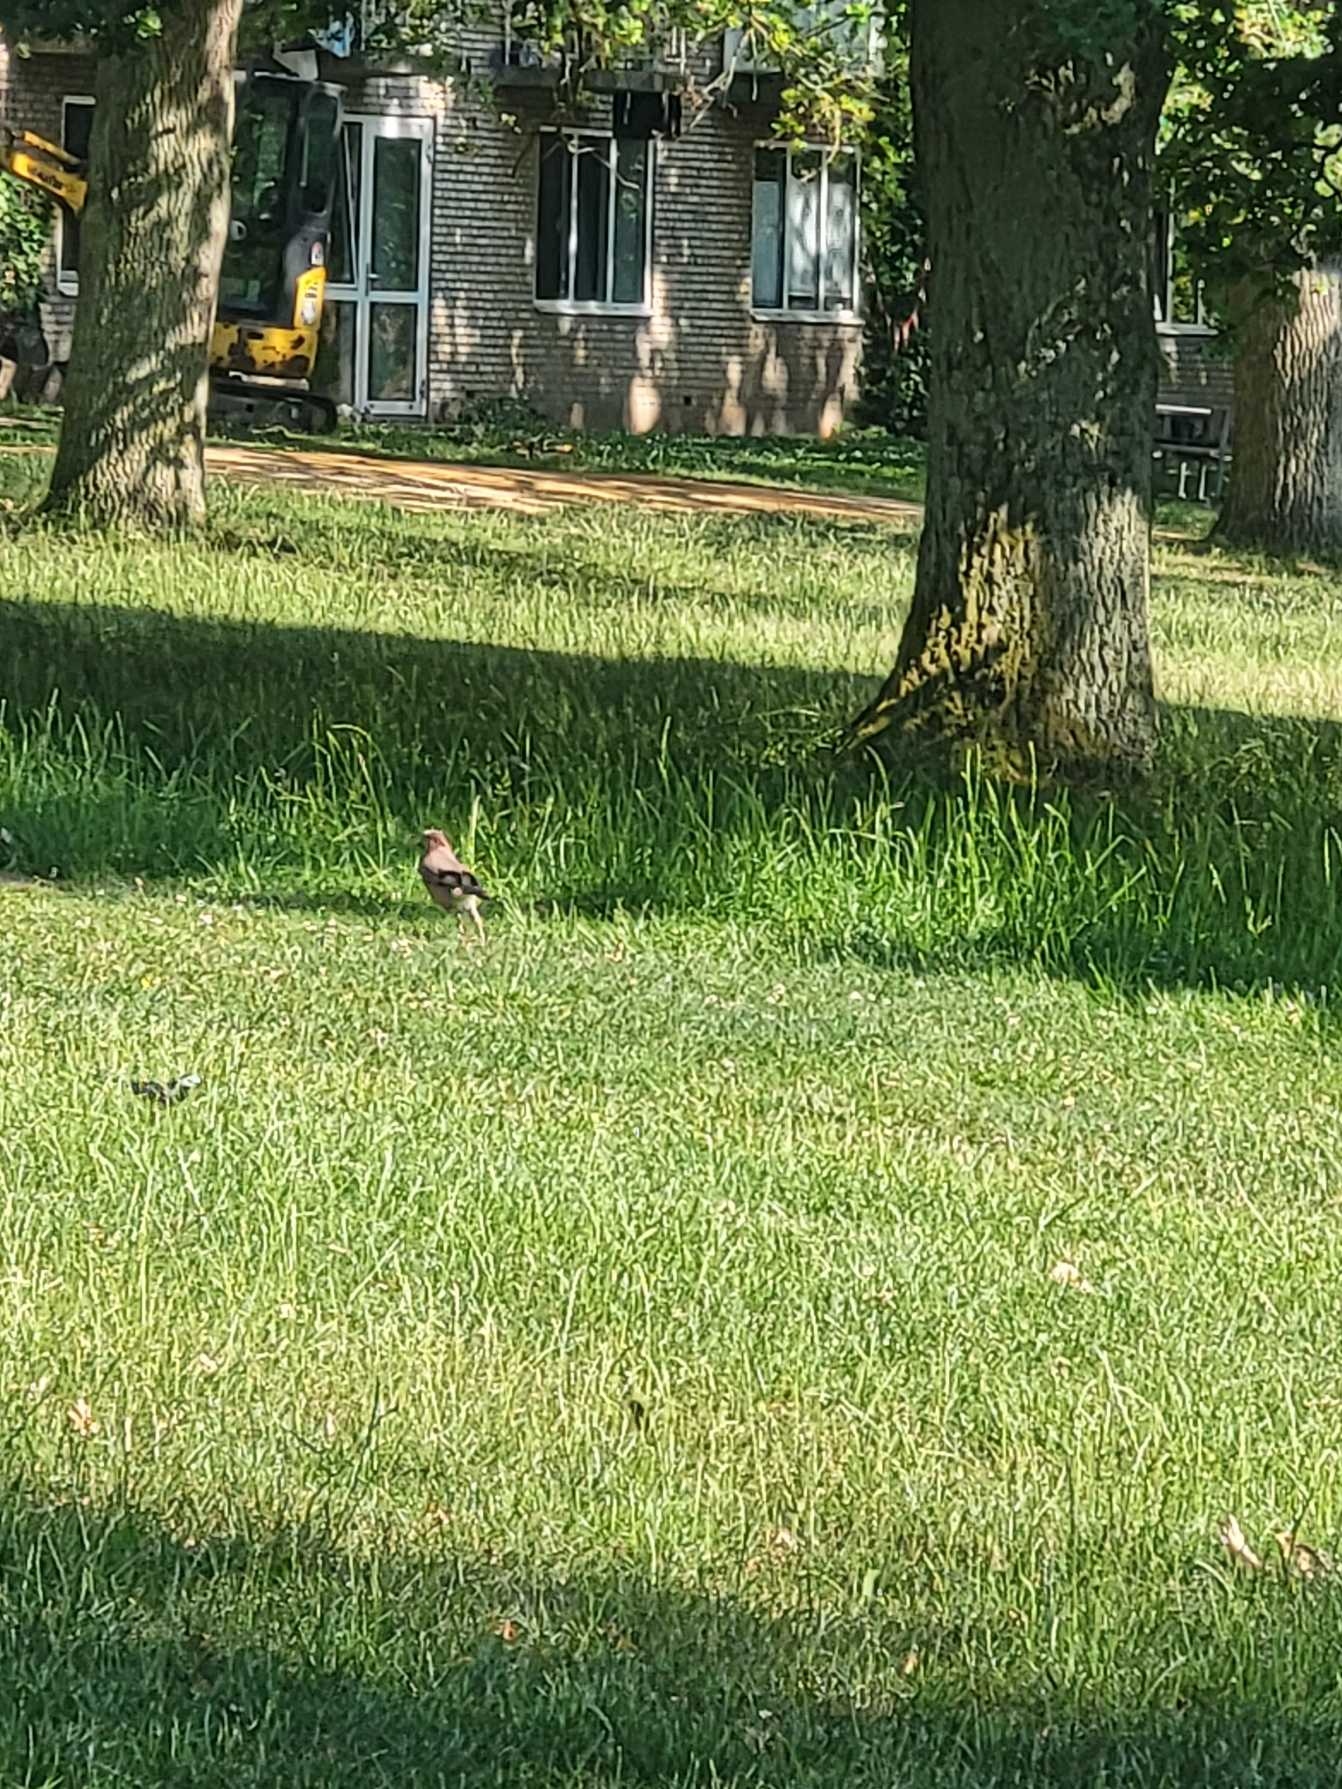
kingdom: Animalia
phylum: Chordata
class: Aves
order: Passeriformes
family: Corvidae
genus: Garrulus
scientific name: Garrulus glandarius
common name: Skovskade
